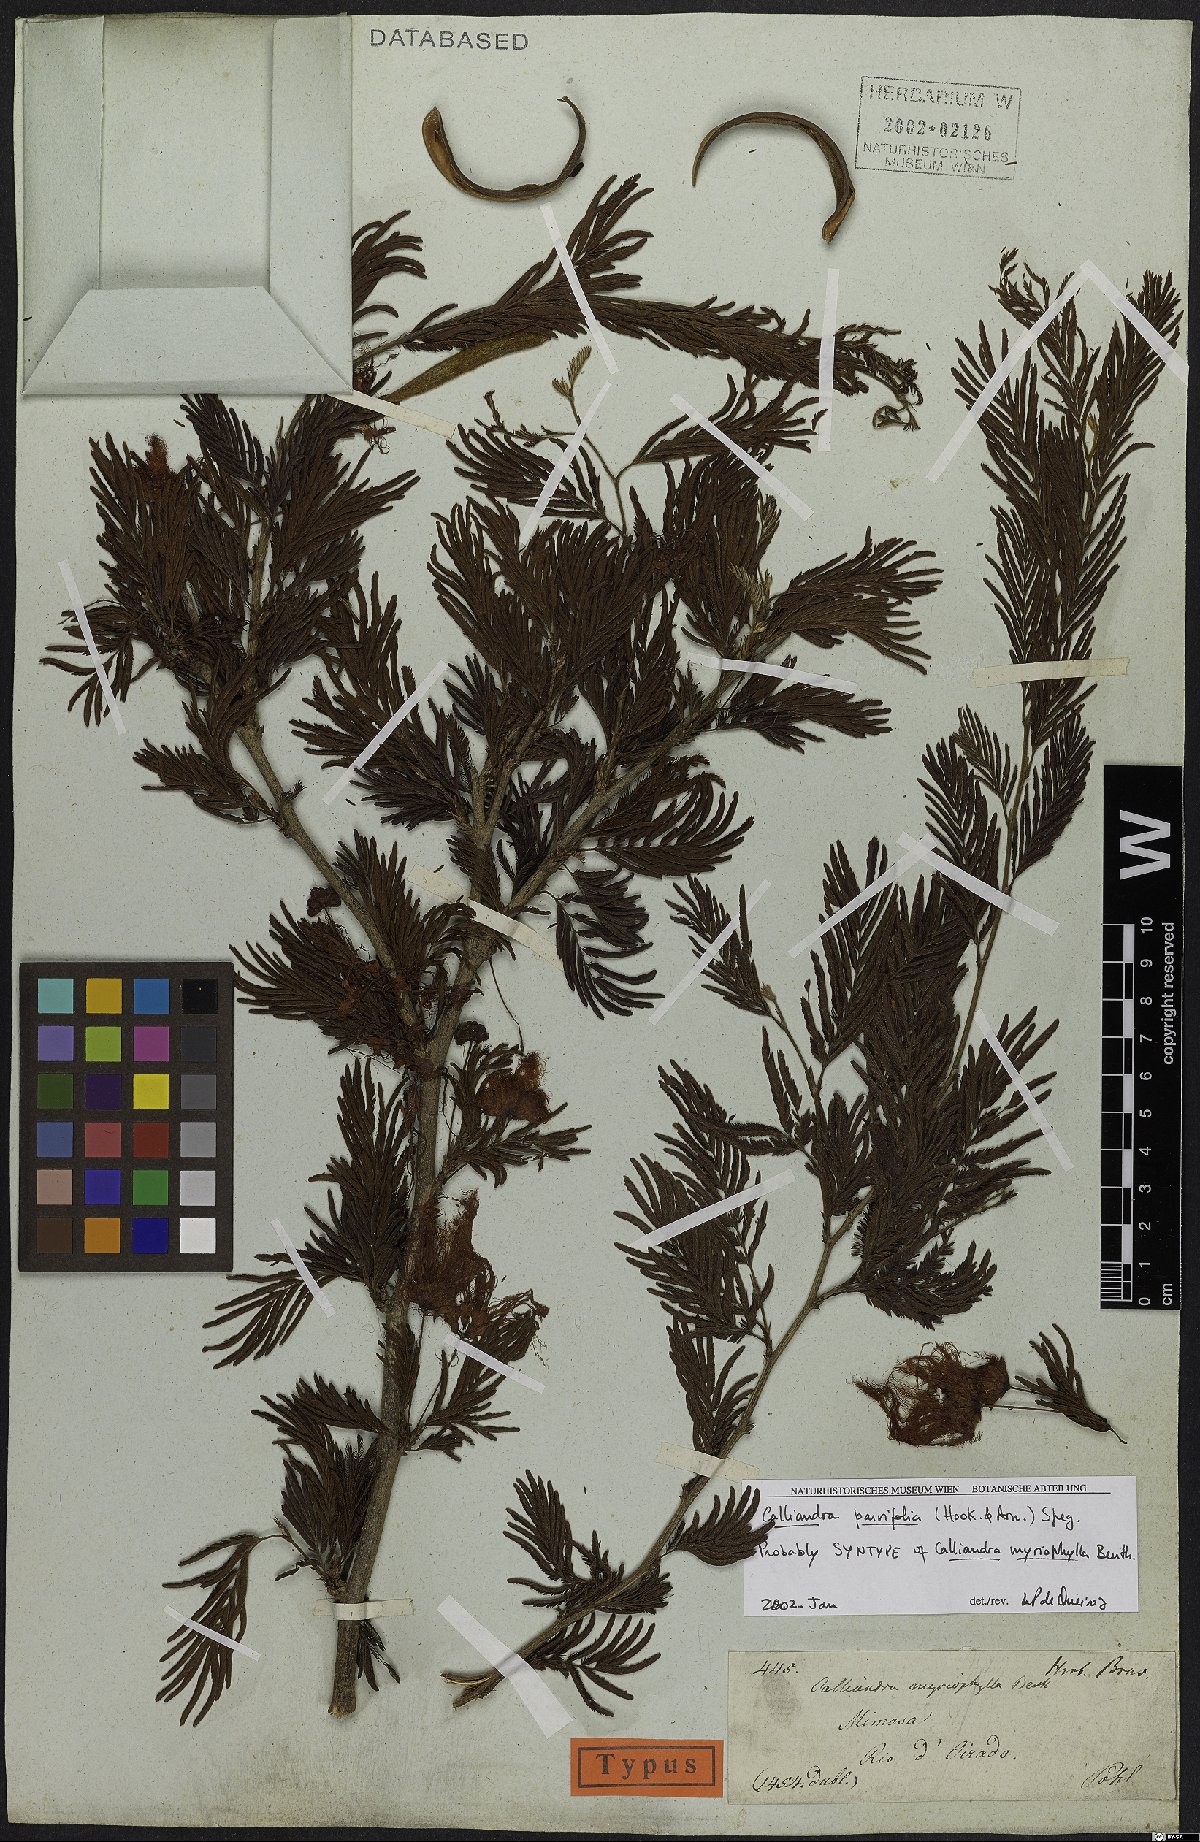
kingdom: Plantae
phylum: Tracheophyta
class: Magnoliopsida
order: Fabales
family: Fabaceae
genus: Calliandra
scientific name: Calliandra parvifolia
